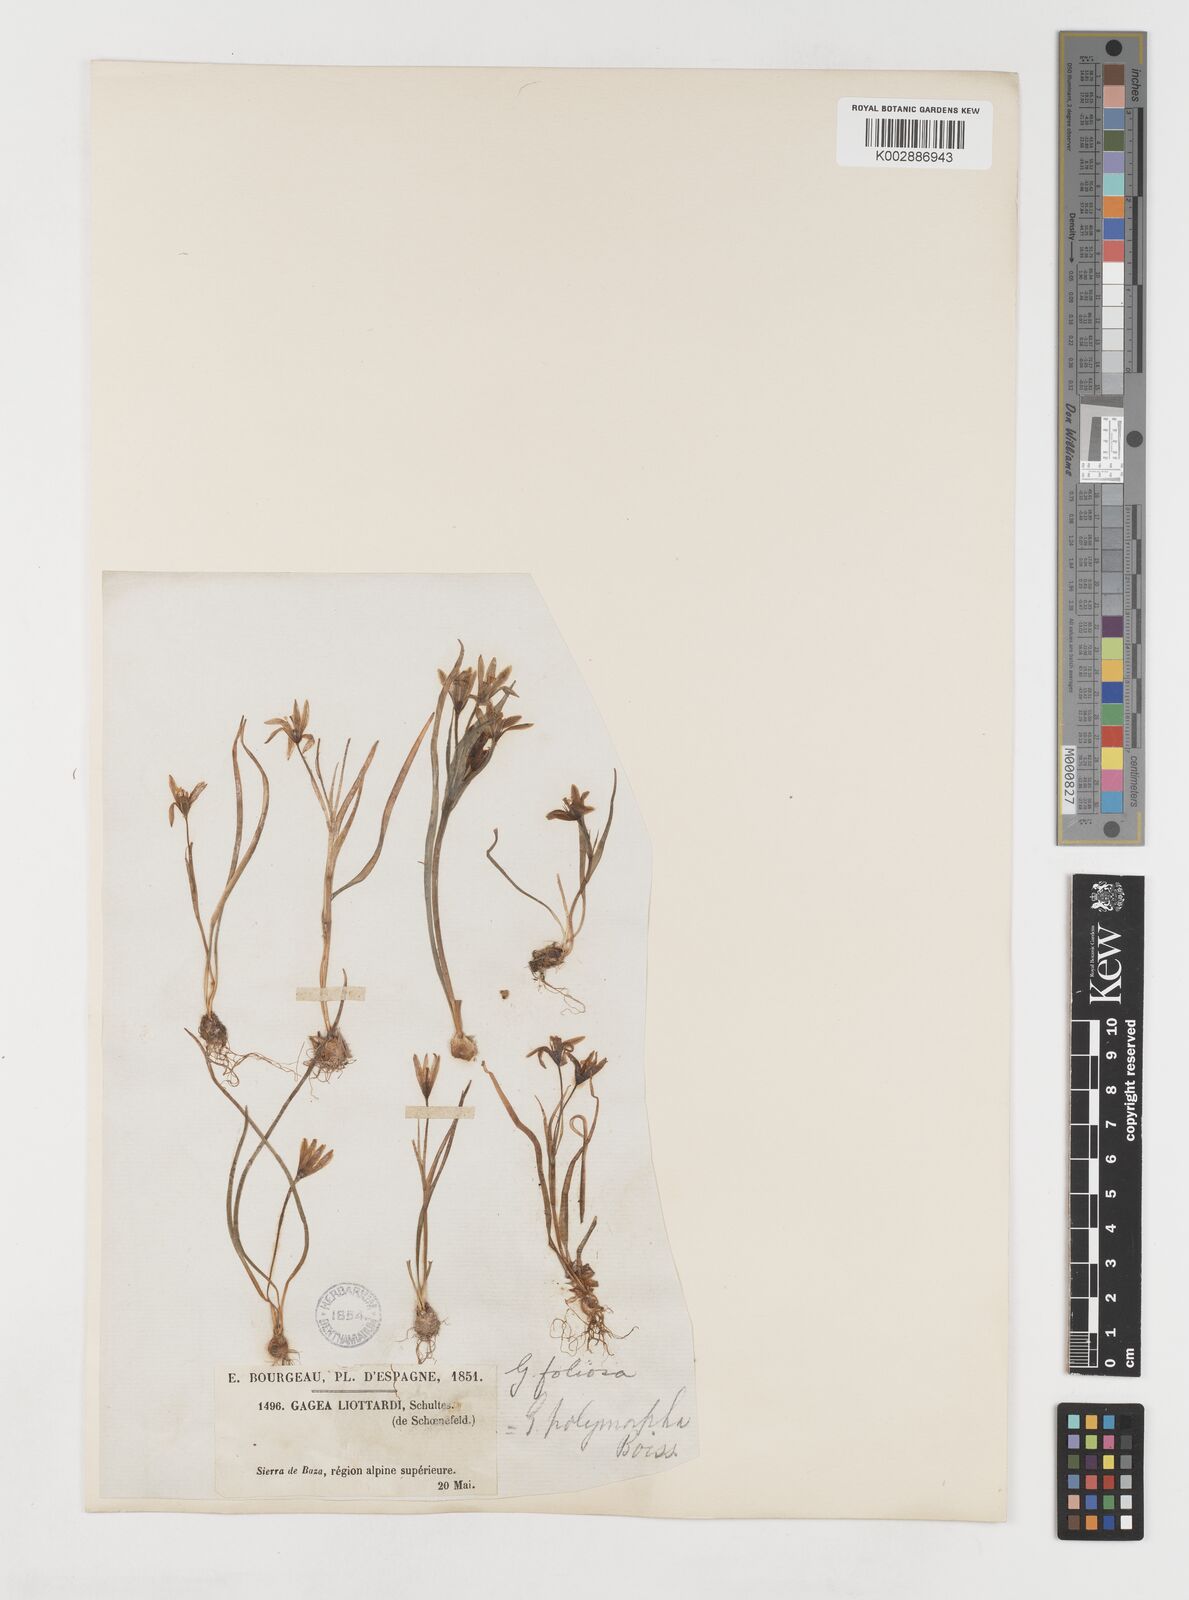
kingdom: Plantae
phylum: Tracheophyta
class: Liliopsida
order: Liliales
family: Liliaceae
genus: Gagea
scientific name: Gagea foliosa
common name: Leafy gagea
